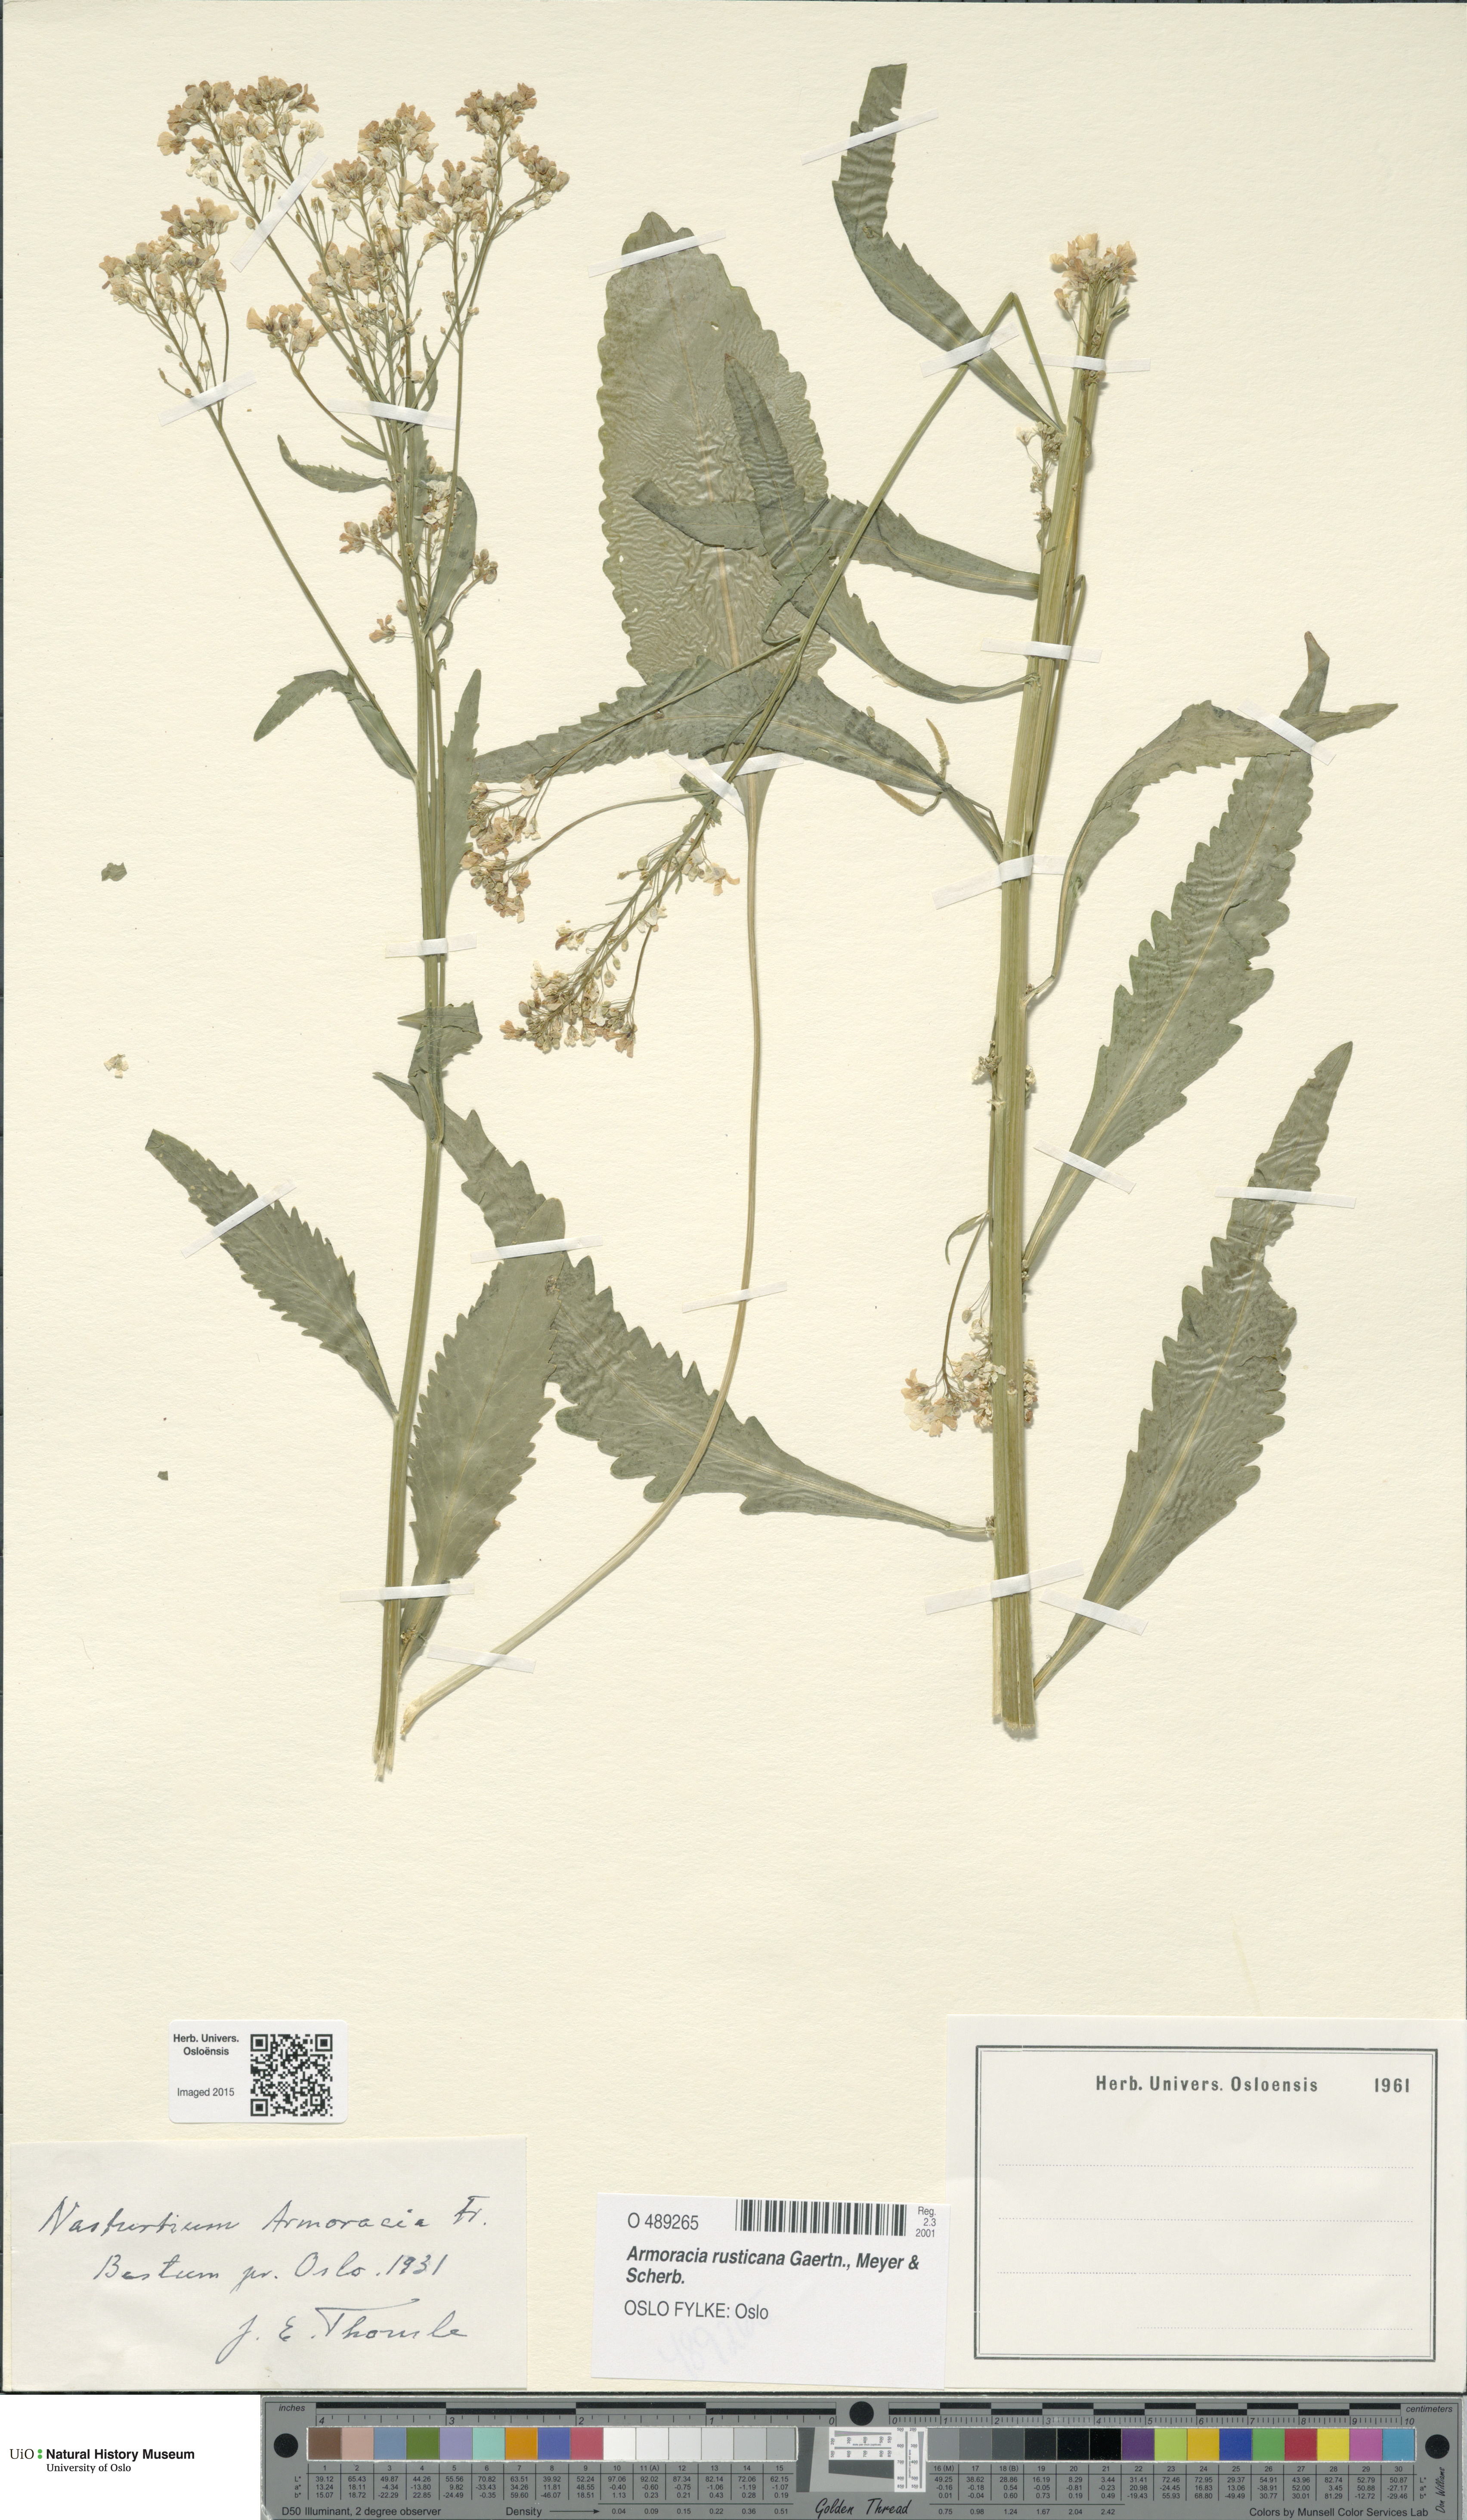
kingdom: Plantae
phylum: Tracheophyta
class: Magnoliopsida
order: Brassicales
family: Brassicaceae
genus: Armoracia
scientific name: Armoracia rusticana
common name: Horseradish
